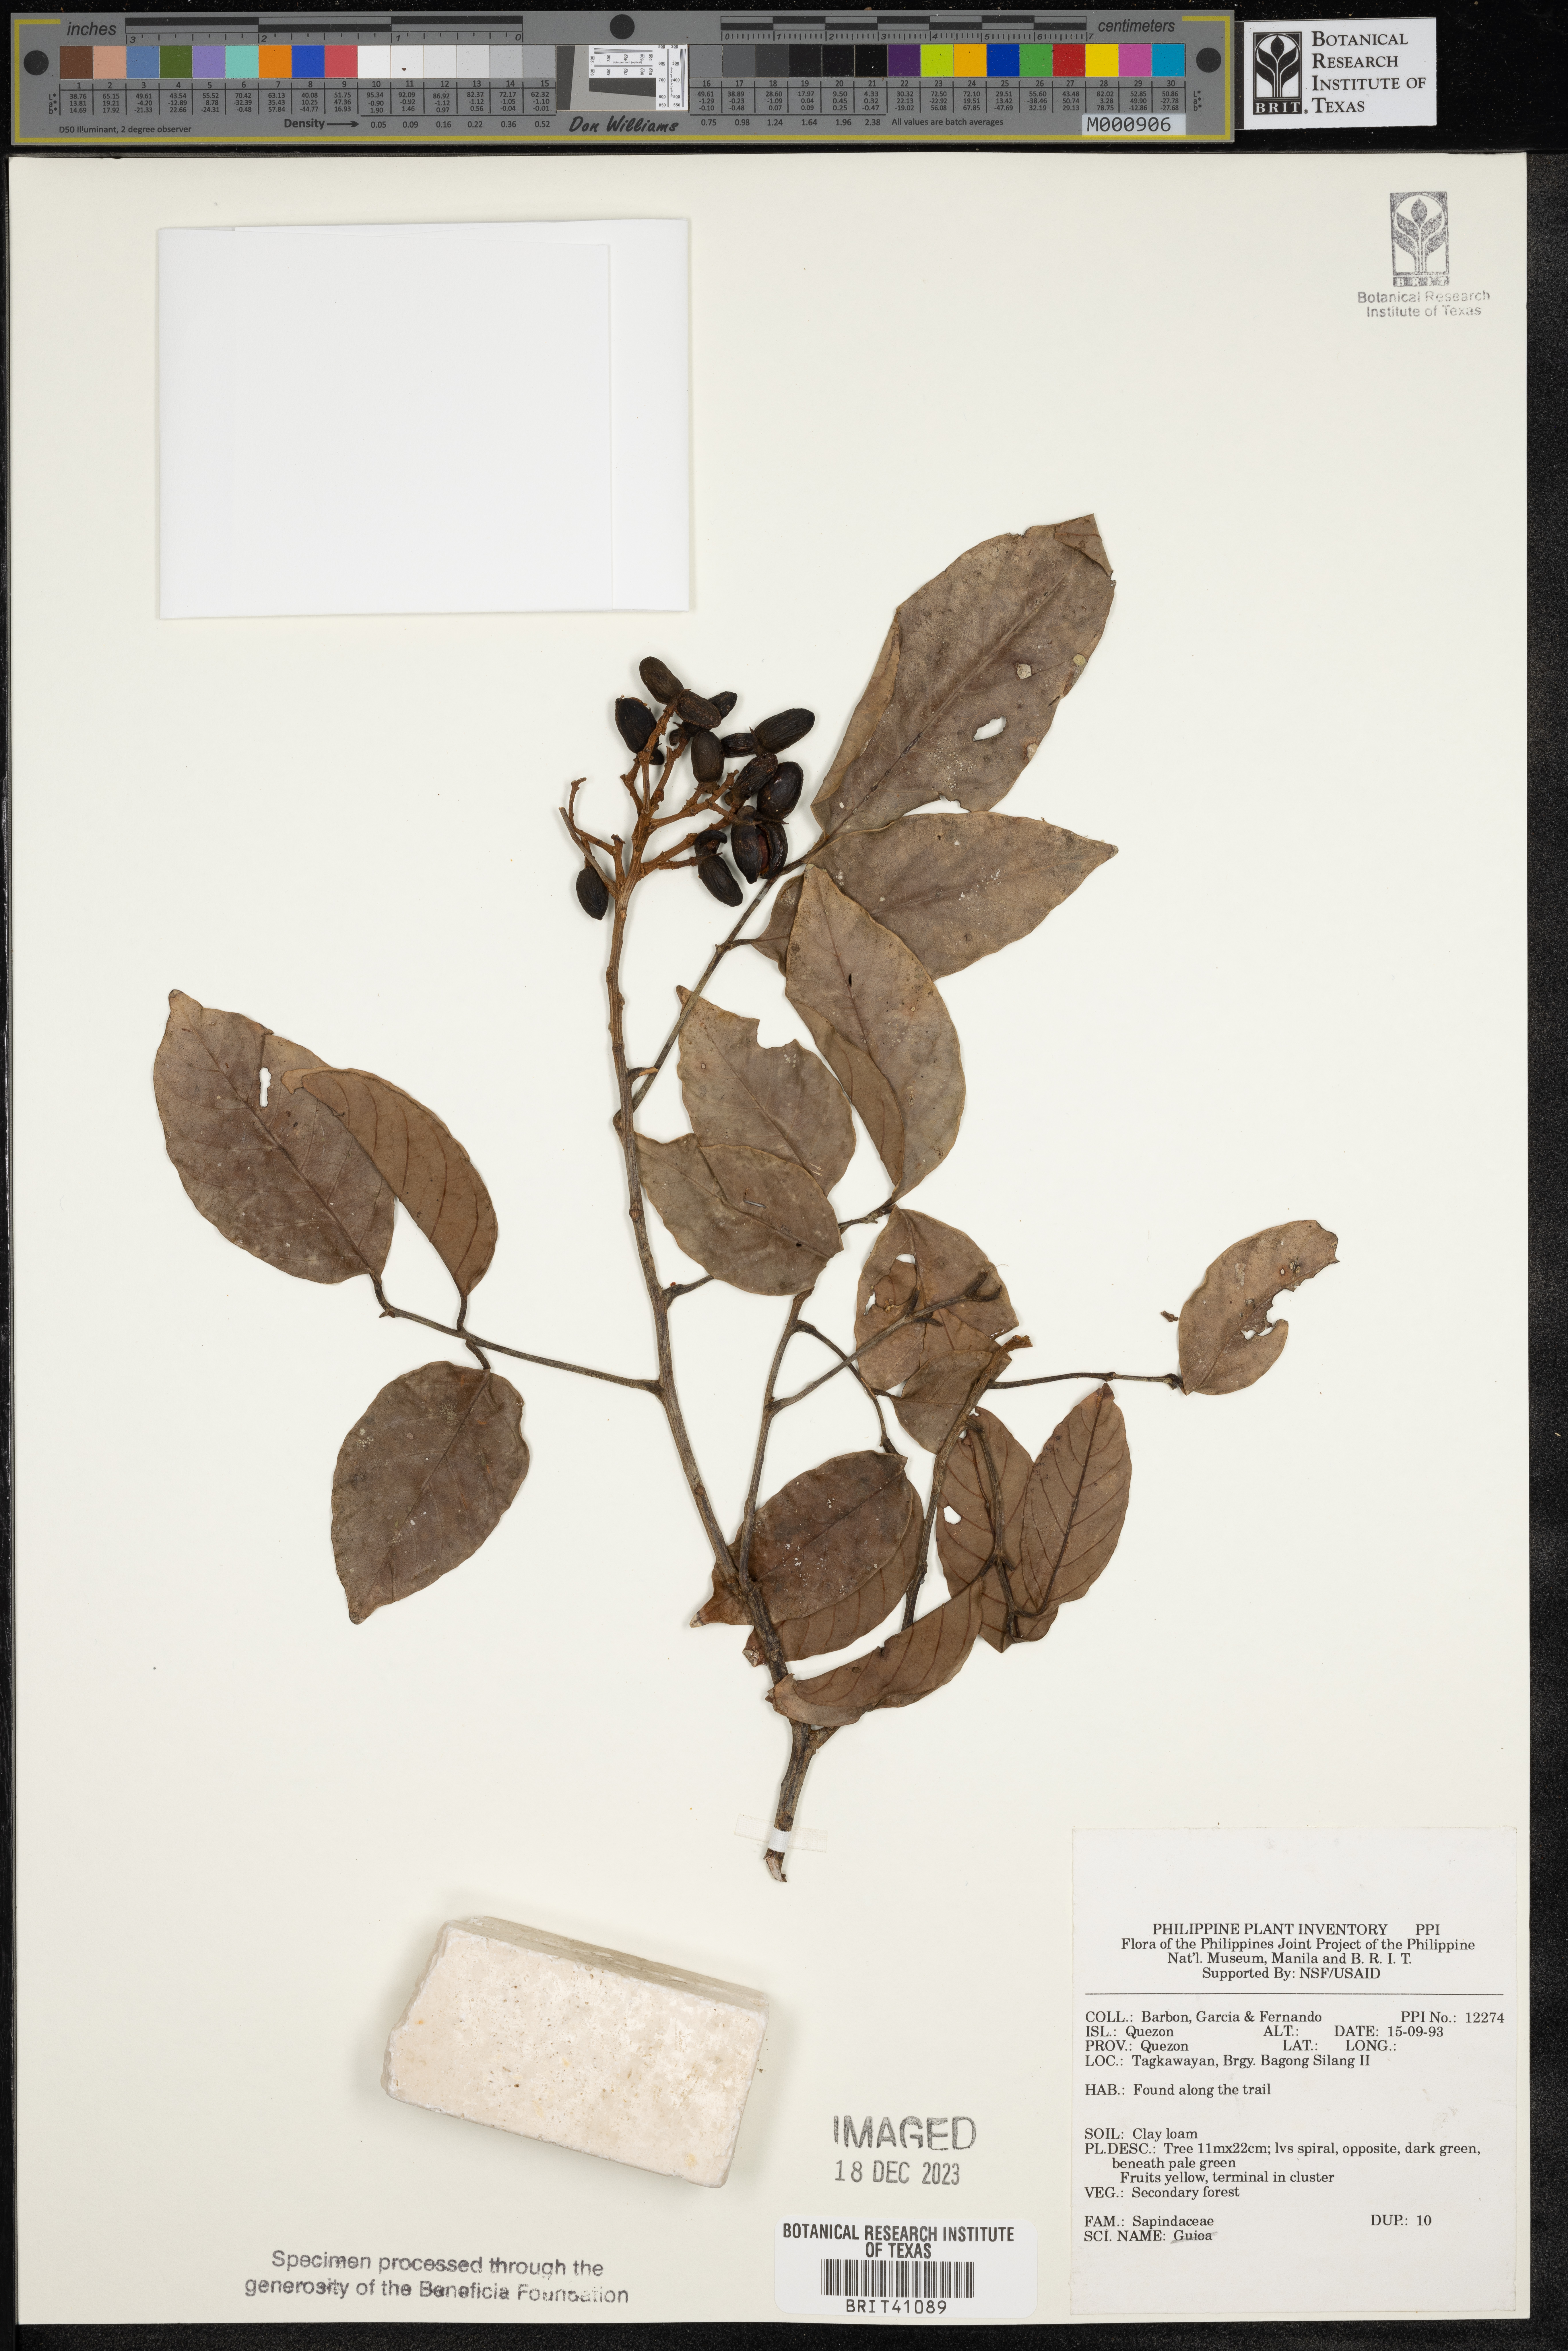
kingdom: Plantae
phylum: Tracheophyta
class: Magnoliopsida
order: Sapindales
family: Sapindaceae
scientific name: Sapindaceae
